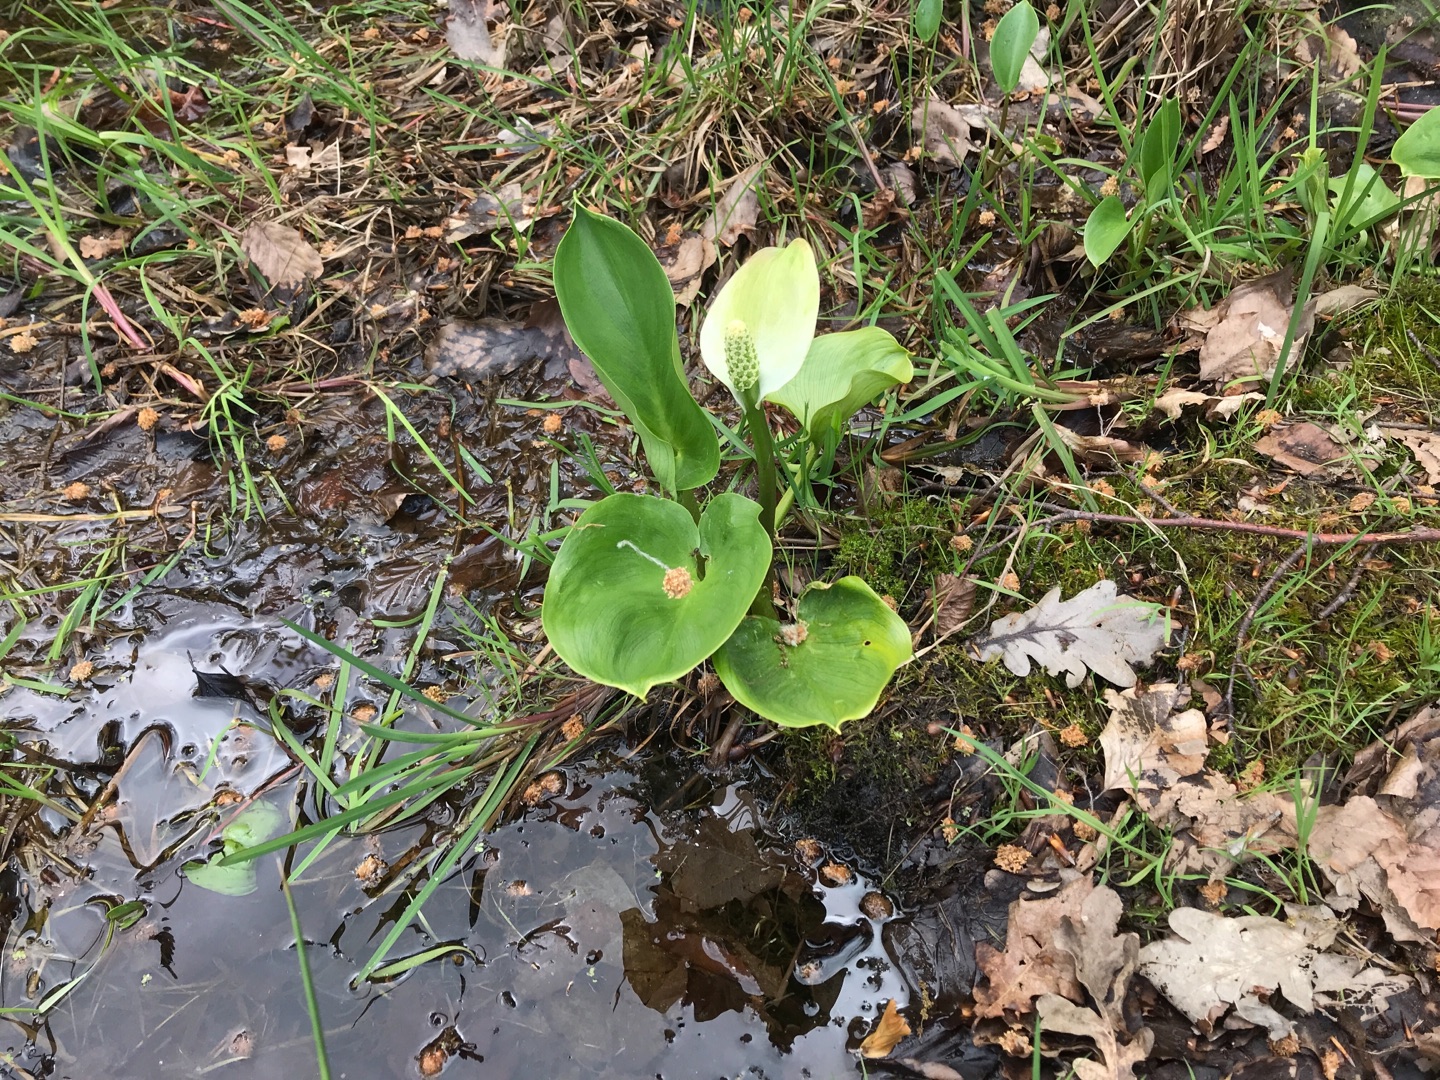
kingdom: Plantae
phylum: Tracheophyta
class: Liliopsida
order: Alismatales
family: Araceae
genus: Calla
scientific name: Calla palustris
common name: Kærmysse
